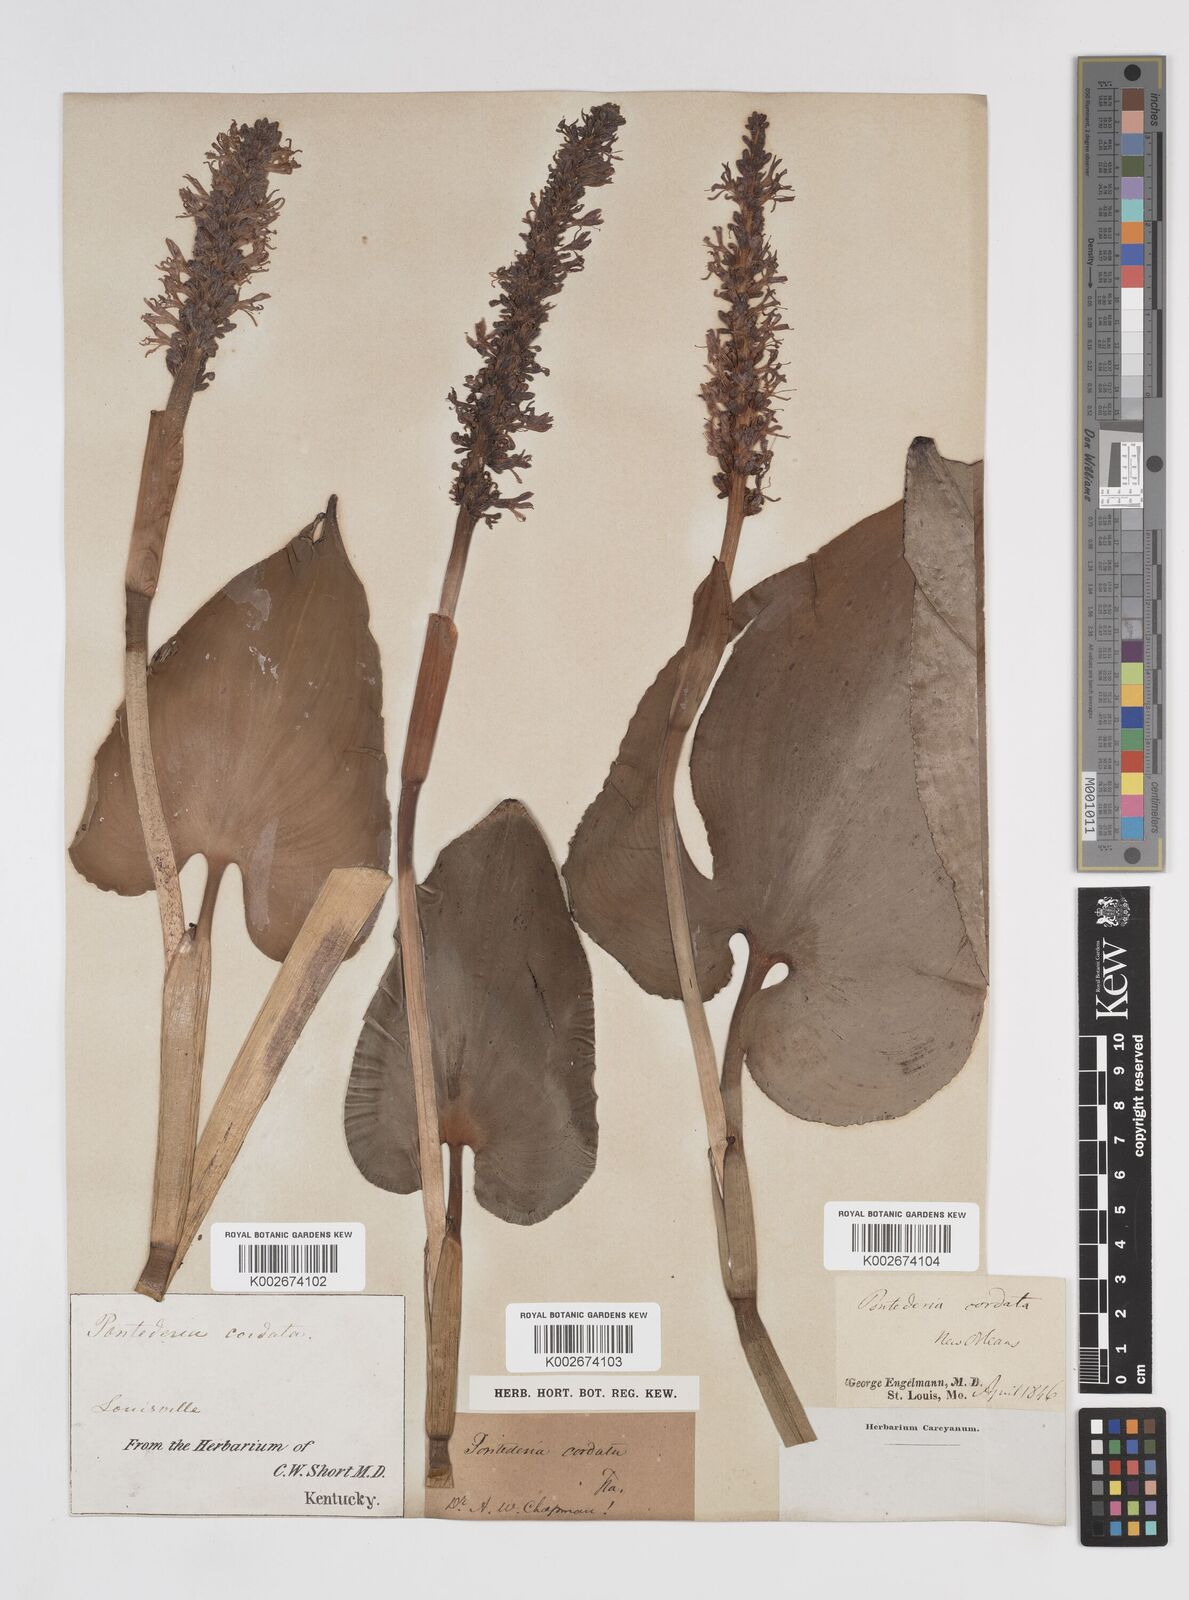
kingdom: Plantae
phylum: Tracheophyta
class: Liliopsida
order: Commelinales
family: Pontederiaceae
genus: Pontederia
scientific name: Pontederia cordata
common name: Pickerelweed
